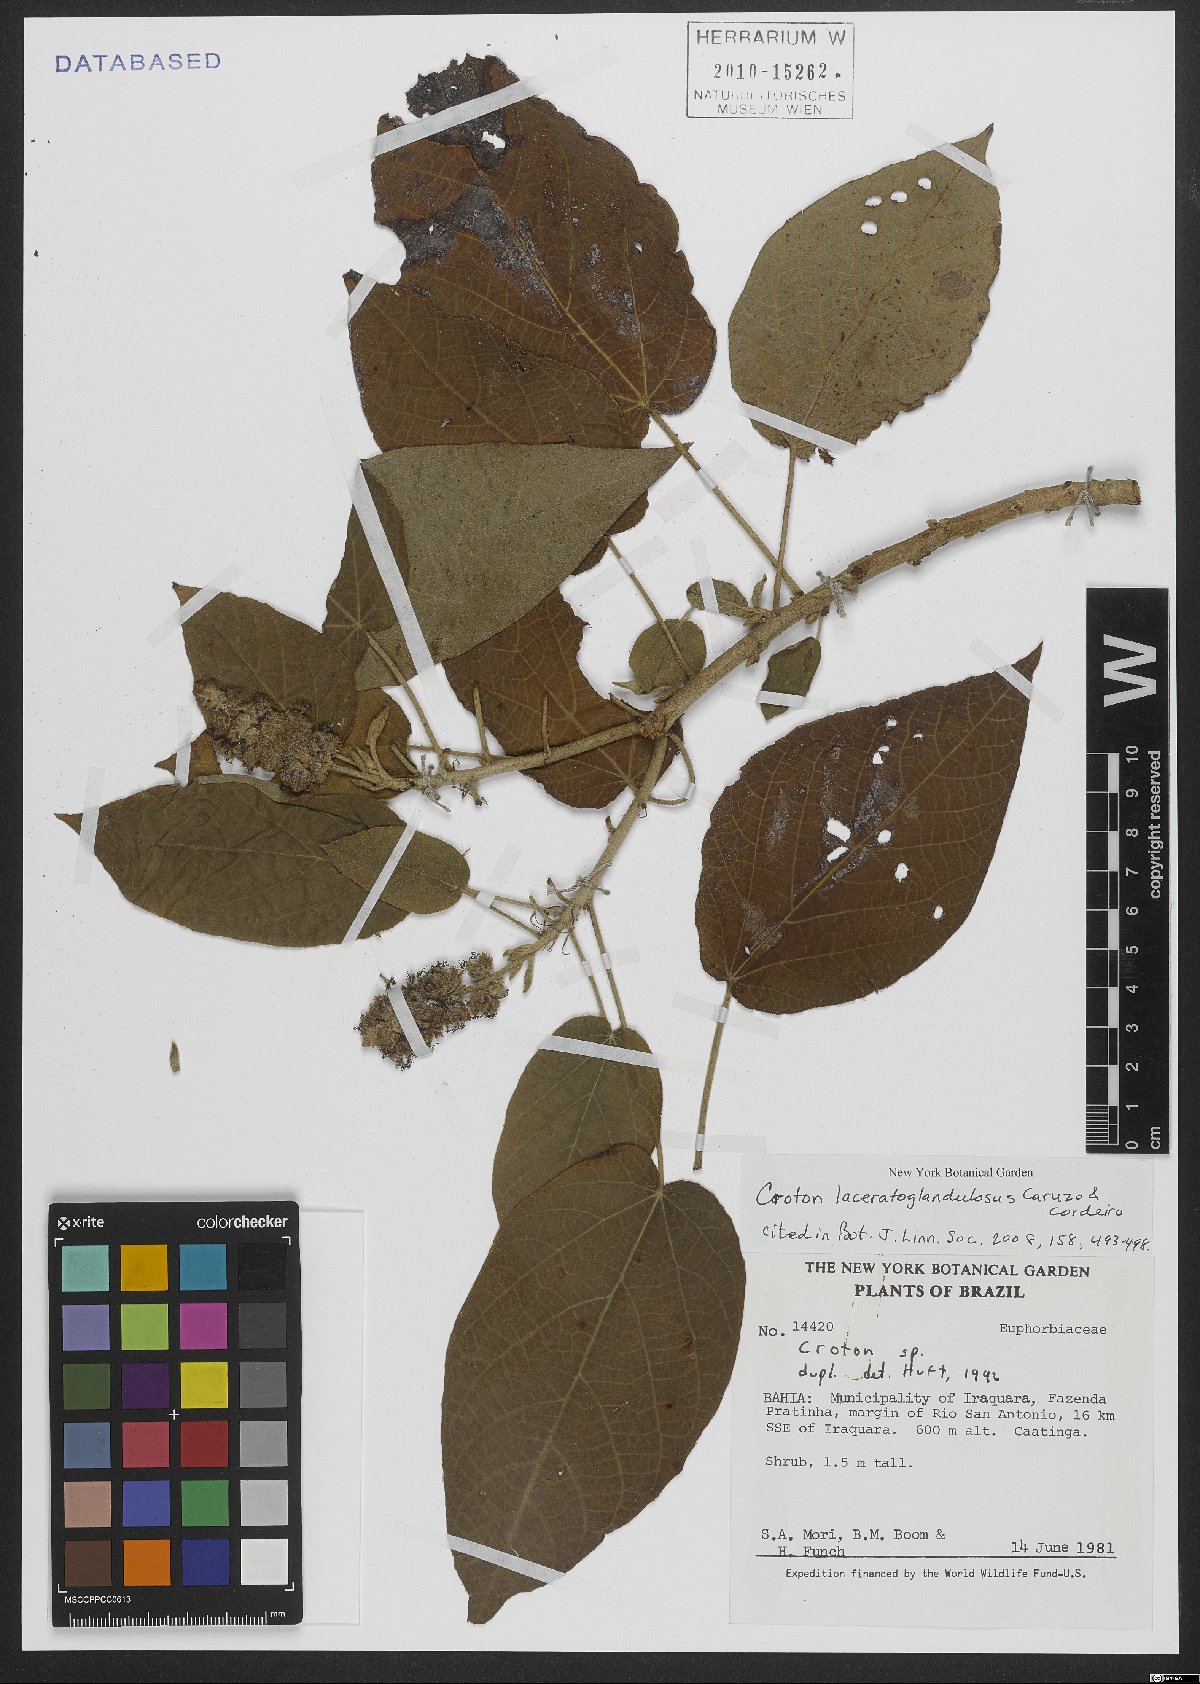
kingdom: Plantae
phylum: Tracheophyta
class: Magnoliopsida
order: Malpighiales
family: Euphorbiaceae
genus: Croton
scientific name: Croton laceratoglandulosus
